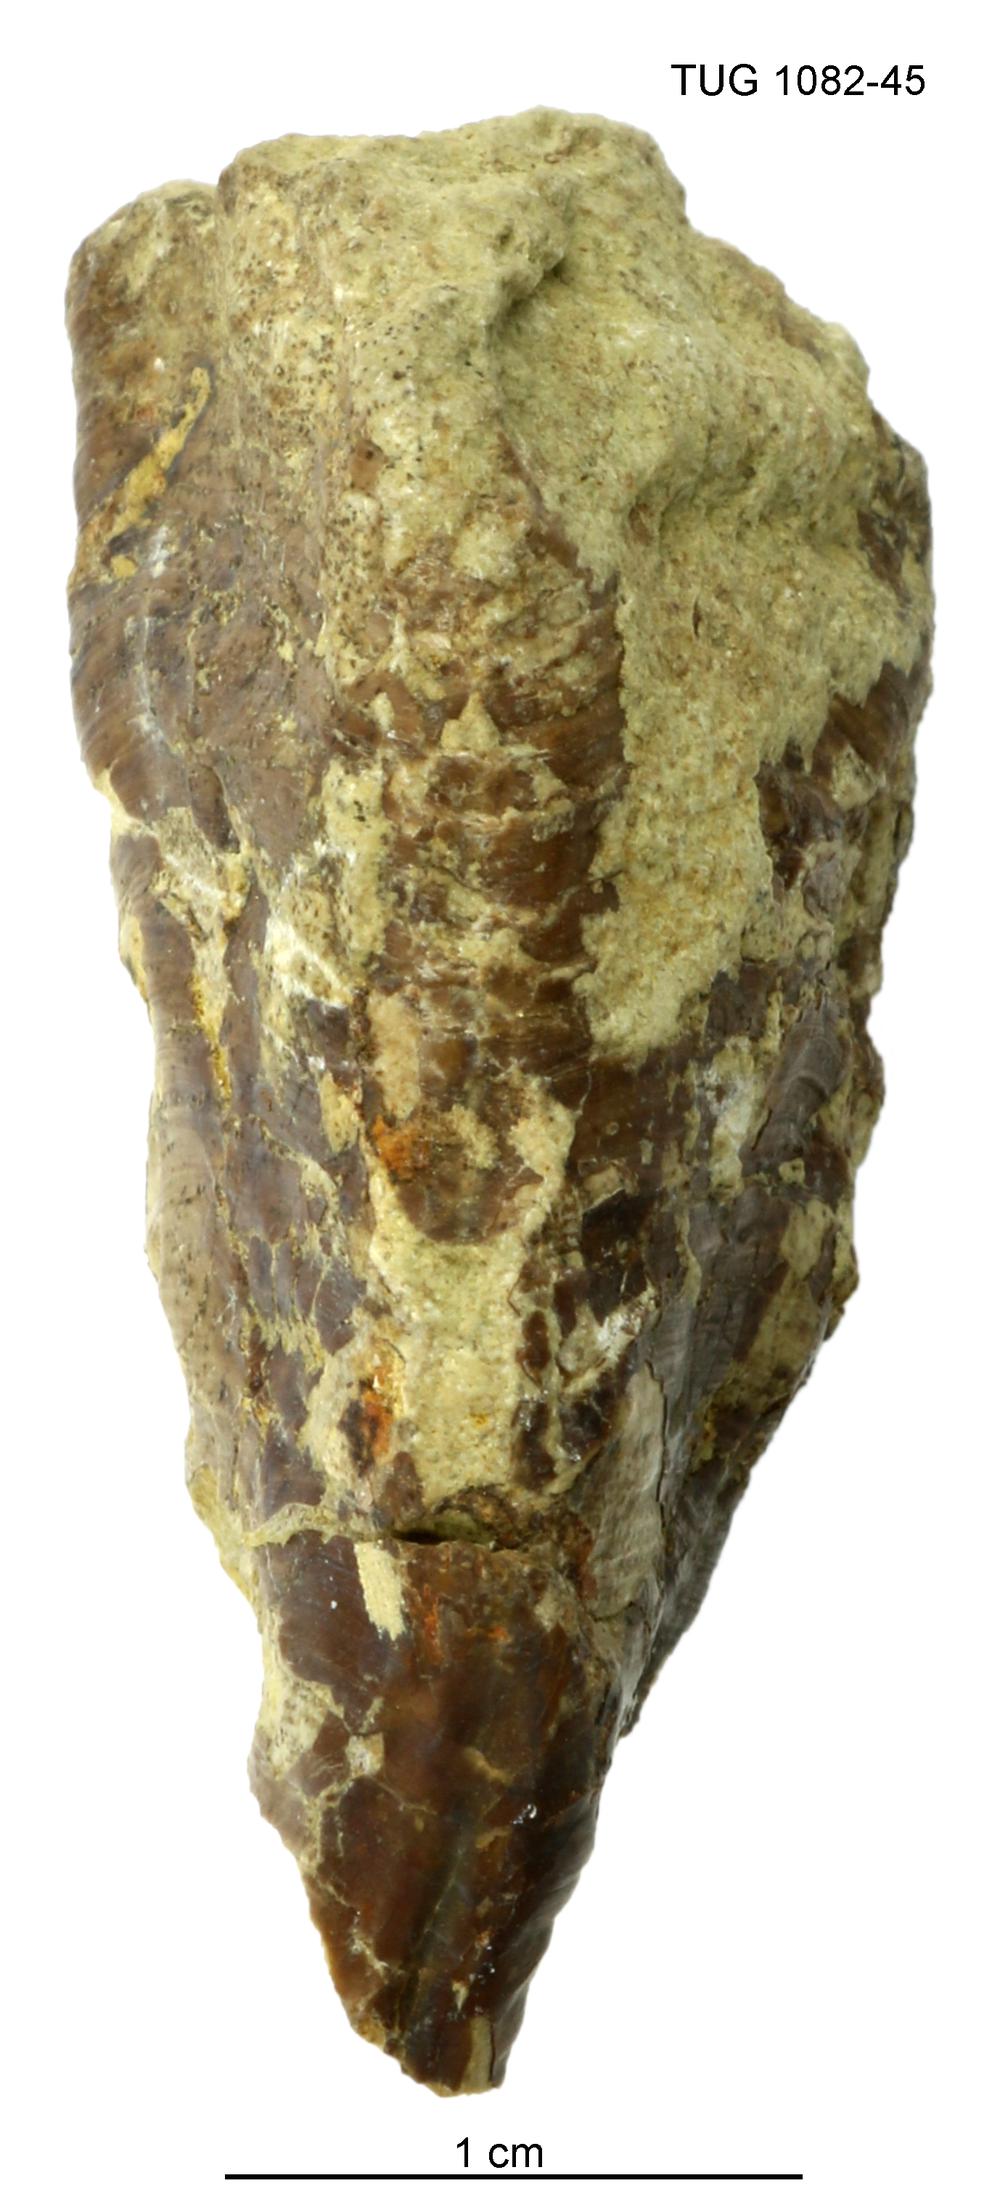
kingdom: Animalia
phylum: Cnidaria
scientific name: Cnidaria
